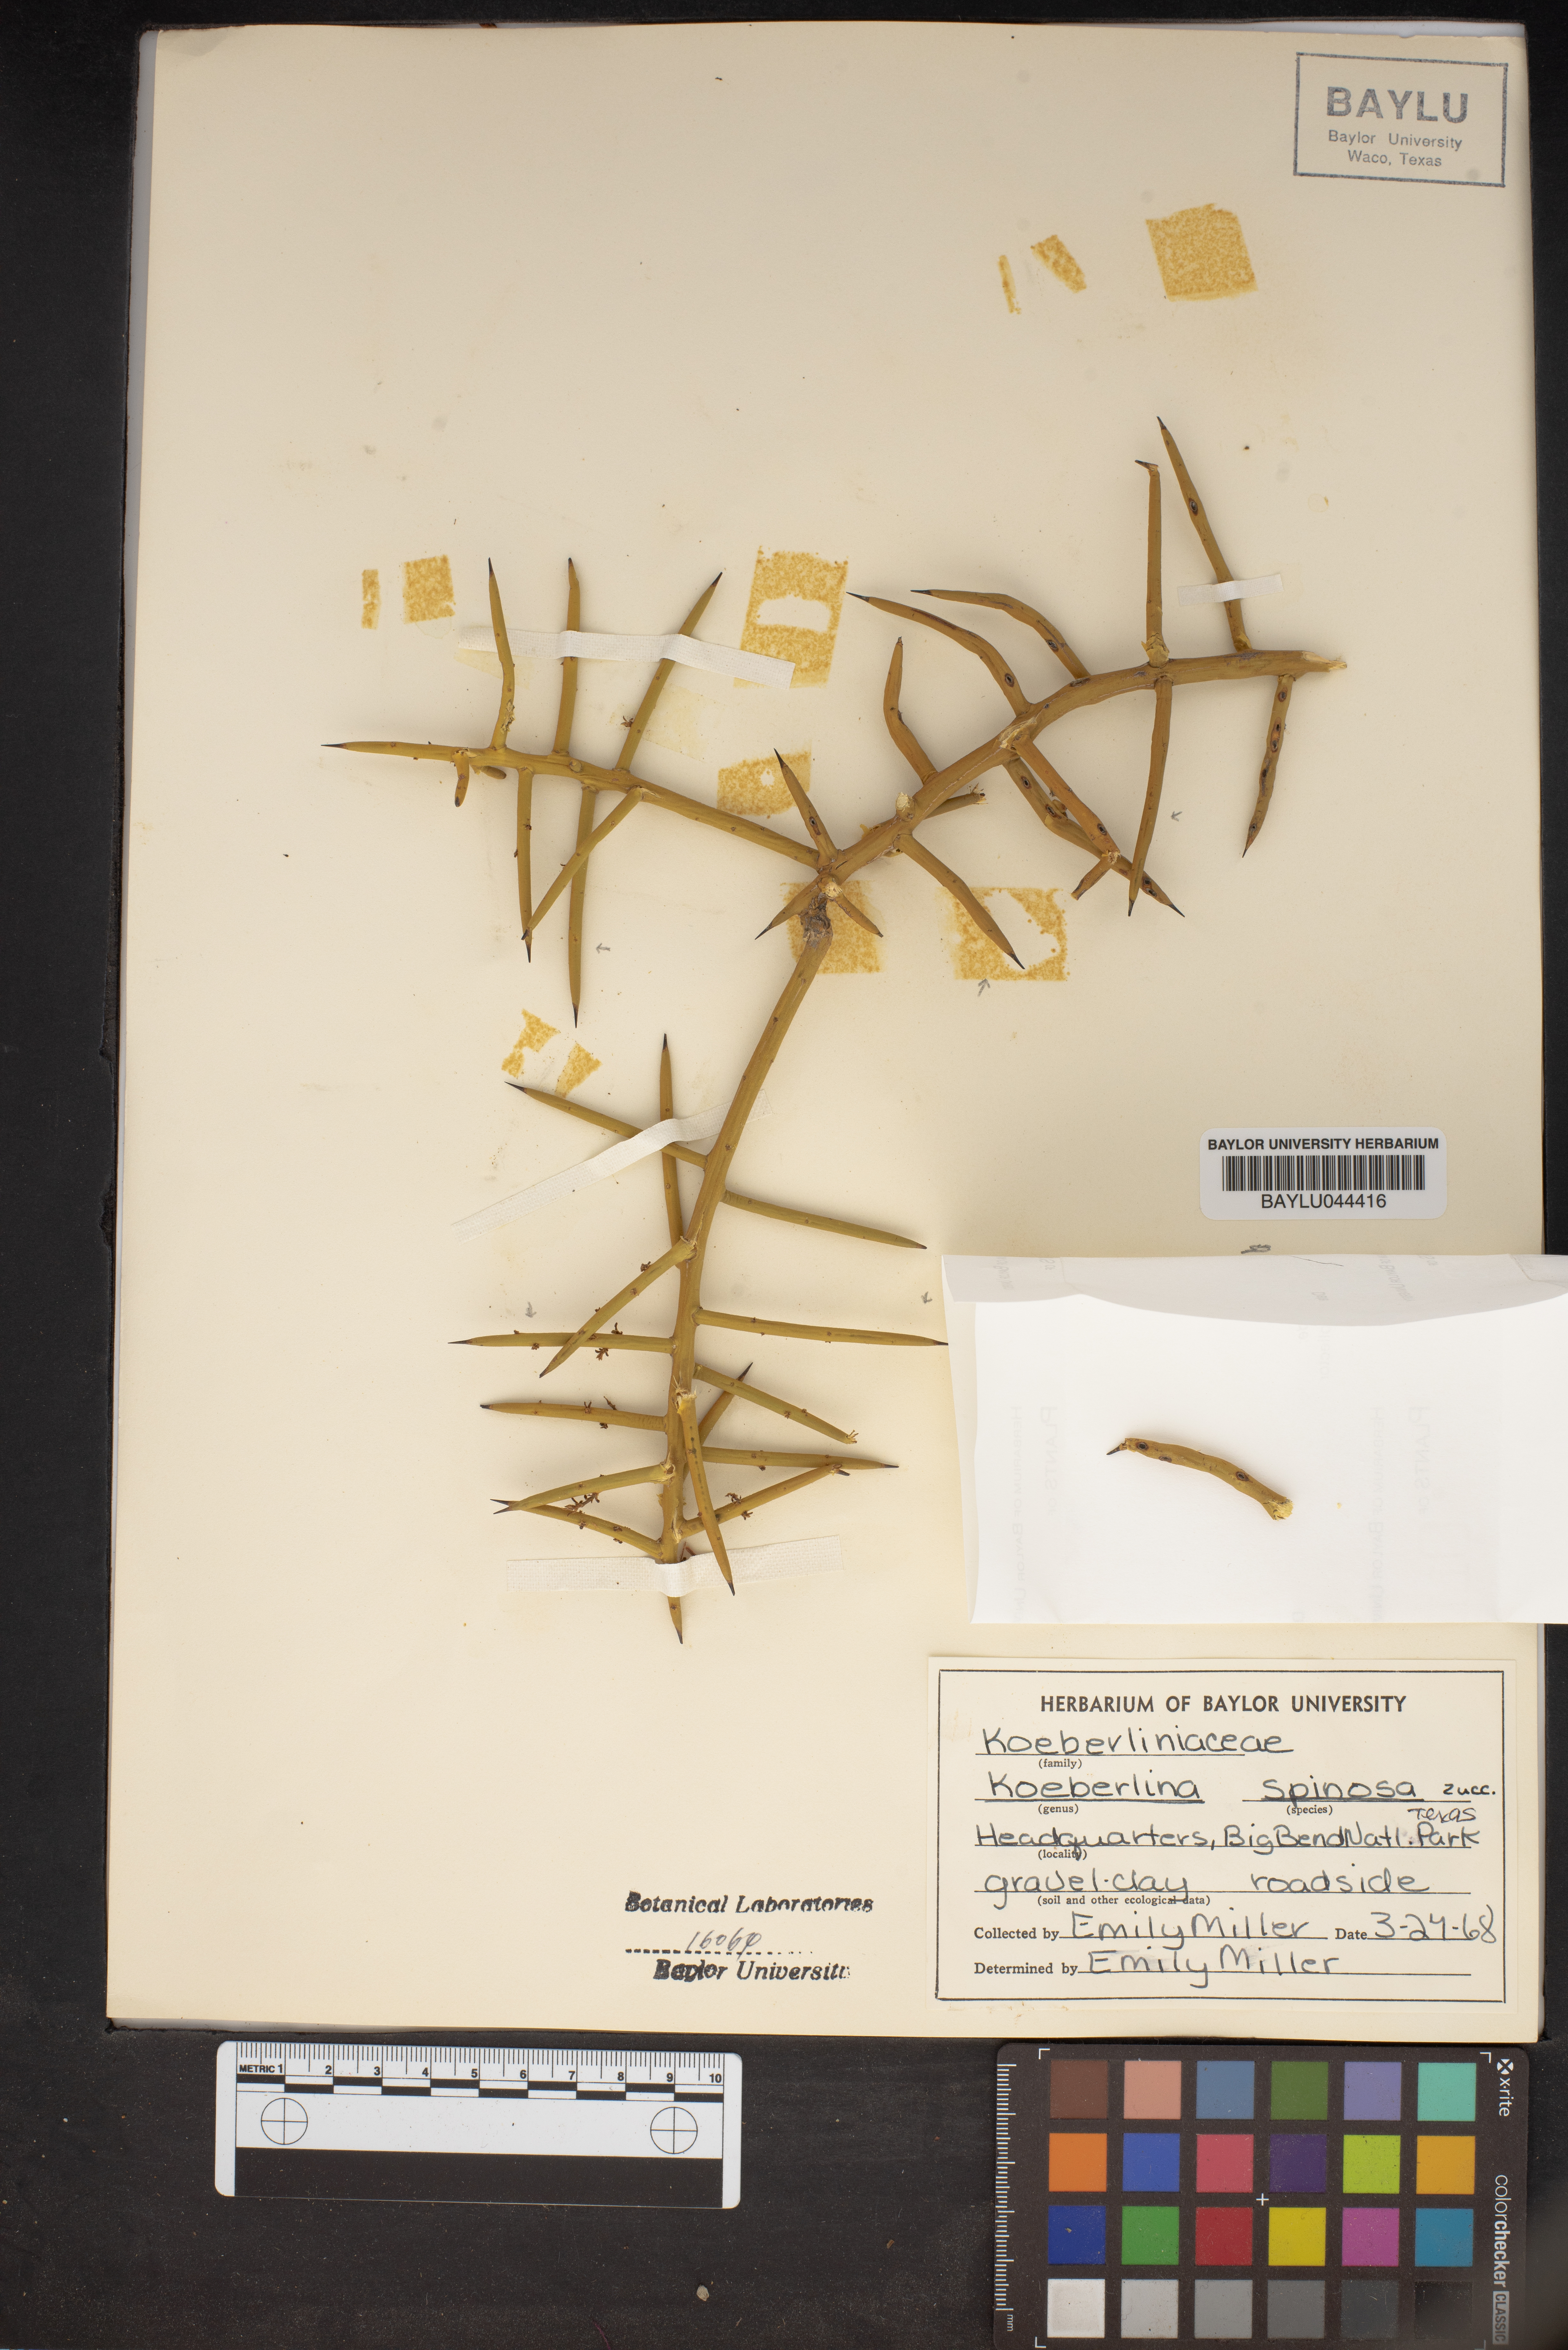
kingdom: Plantae
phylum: Tracheophyta
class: Magnoliopsida
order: Brassicales
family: Koeberliniaceae
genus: Koeberlinia
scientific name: Koeberlinia spinosa
